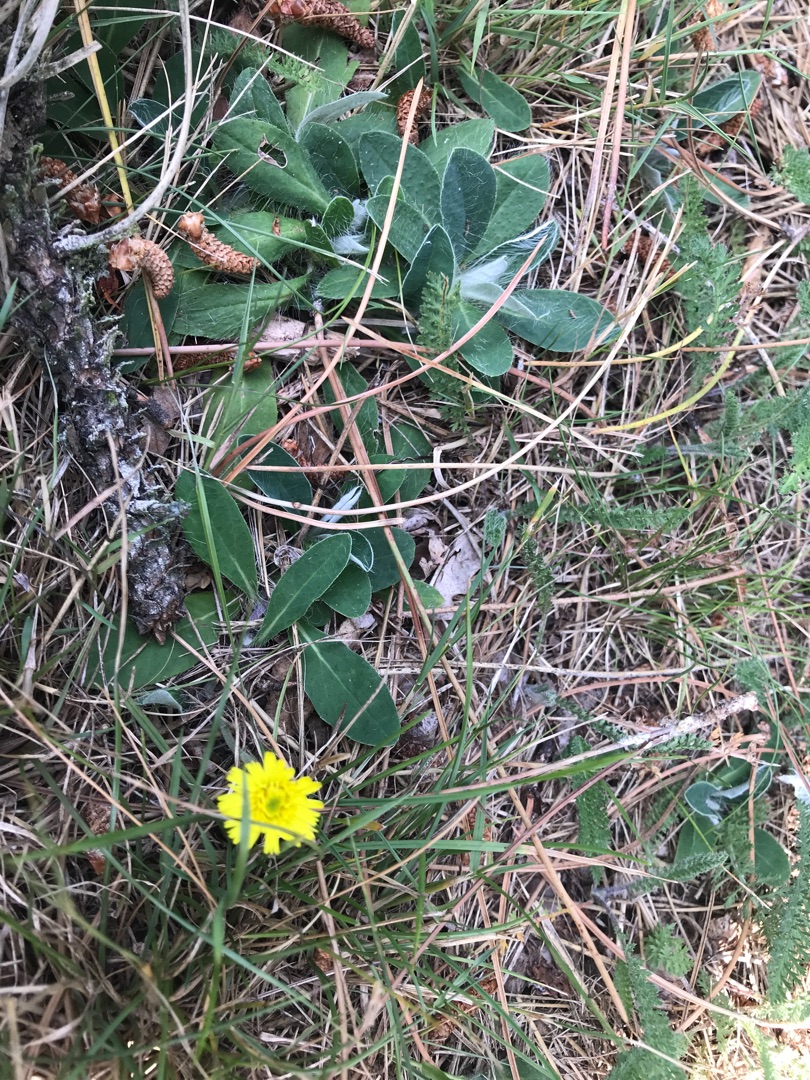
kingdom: Plantae
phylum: Tracheophyta
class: Magnoliopsida
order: Asterales
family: Asteraceae
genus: Pilosella
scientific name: Pilosella officinarum
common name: Håret høgeurt
